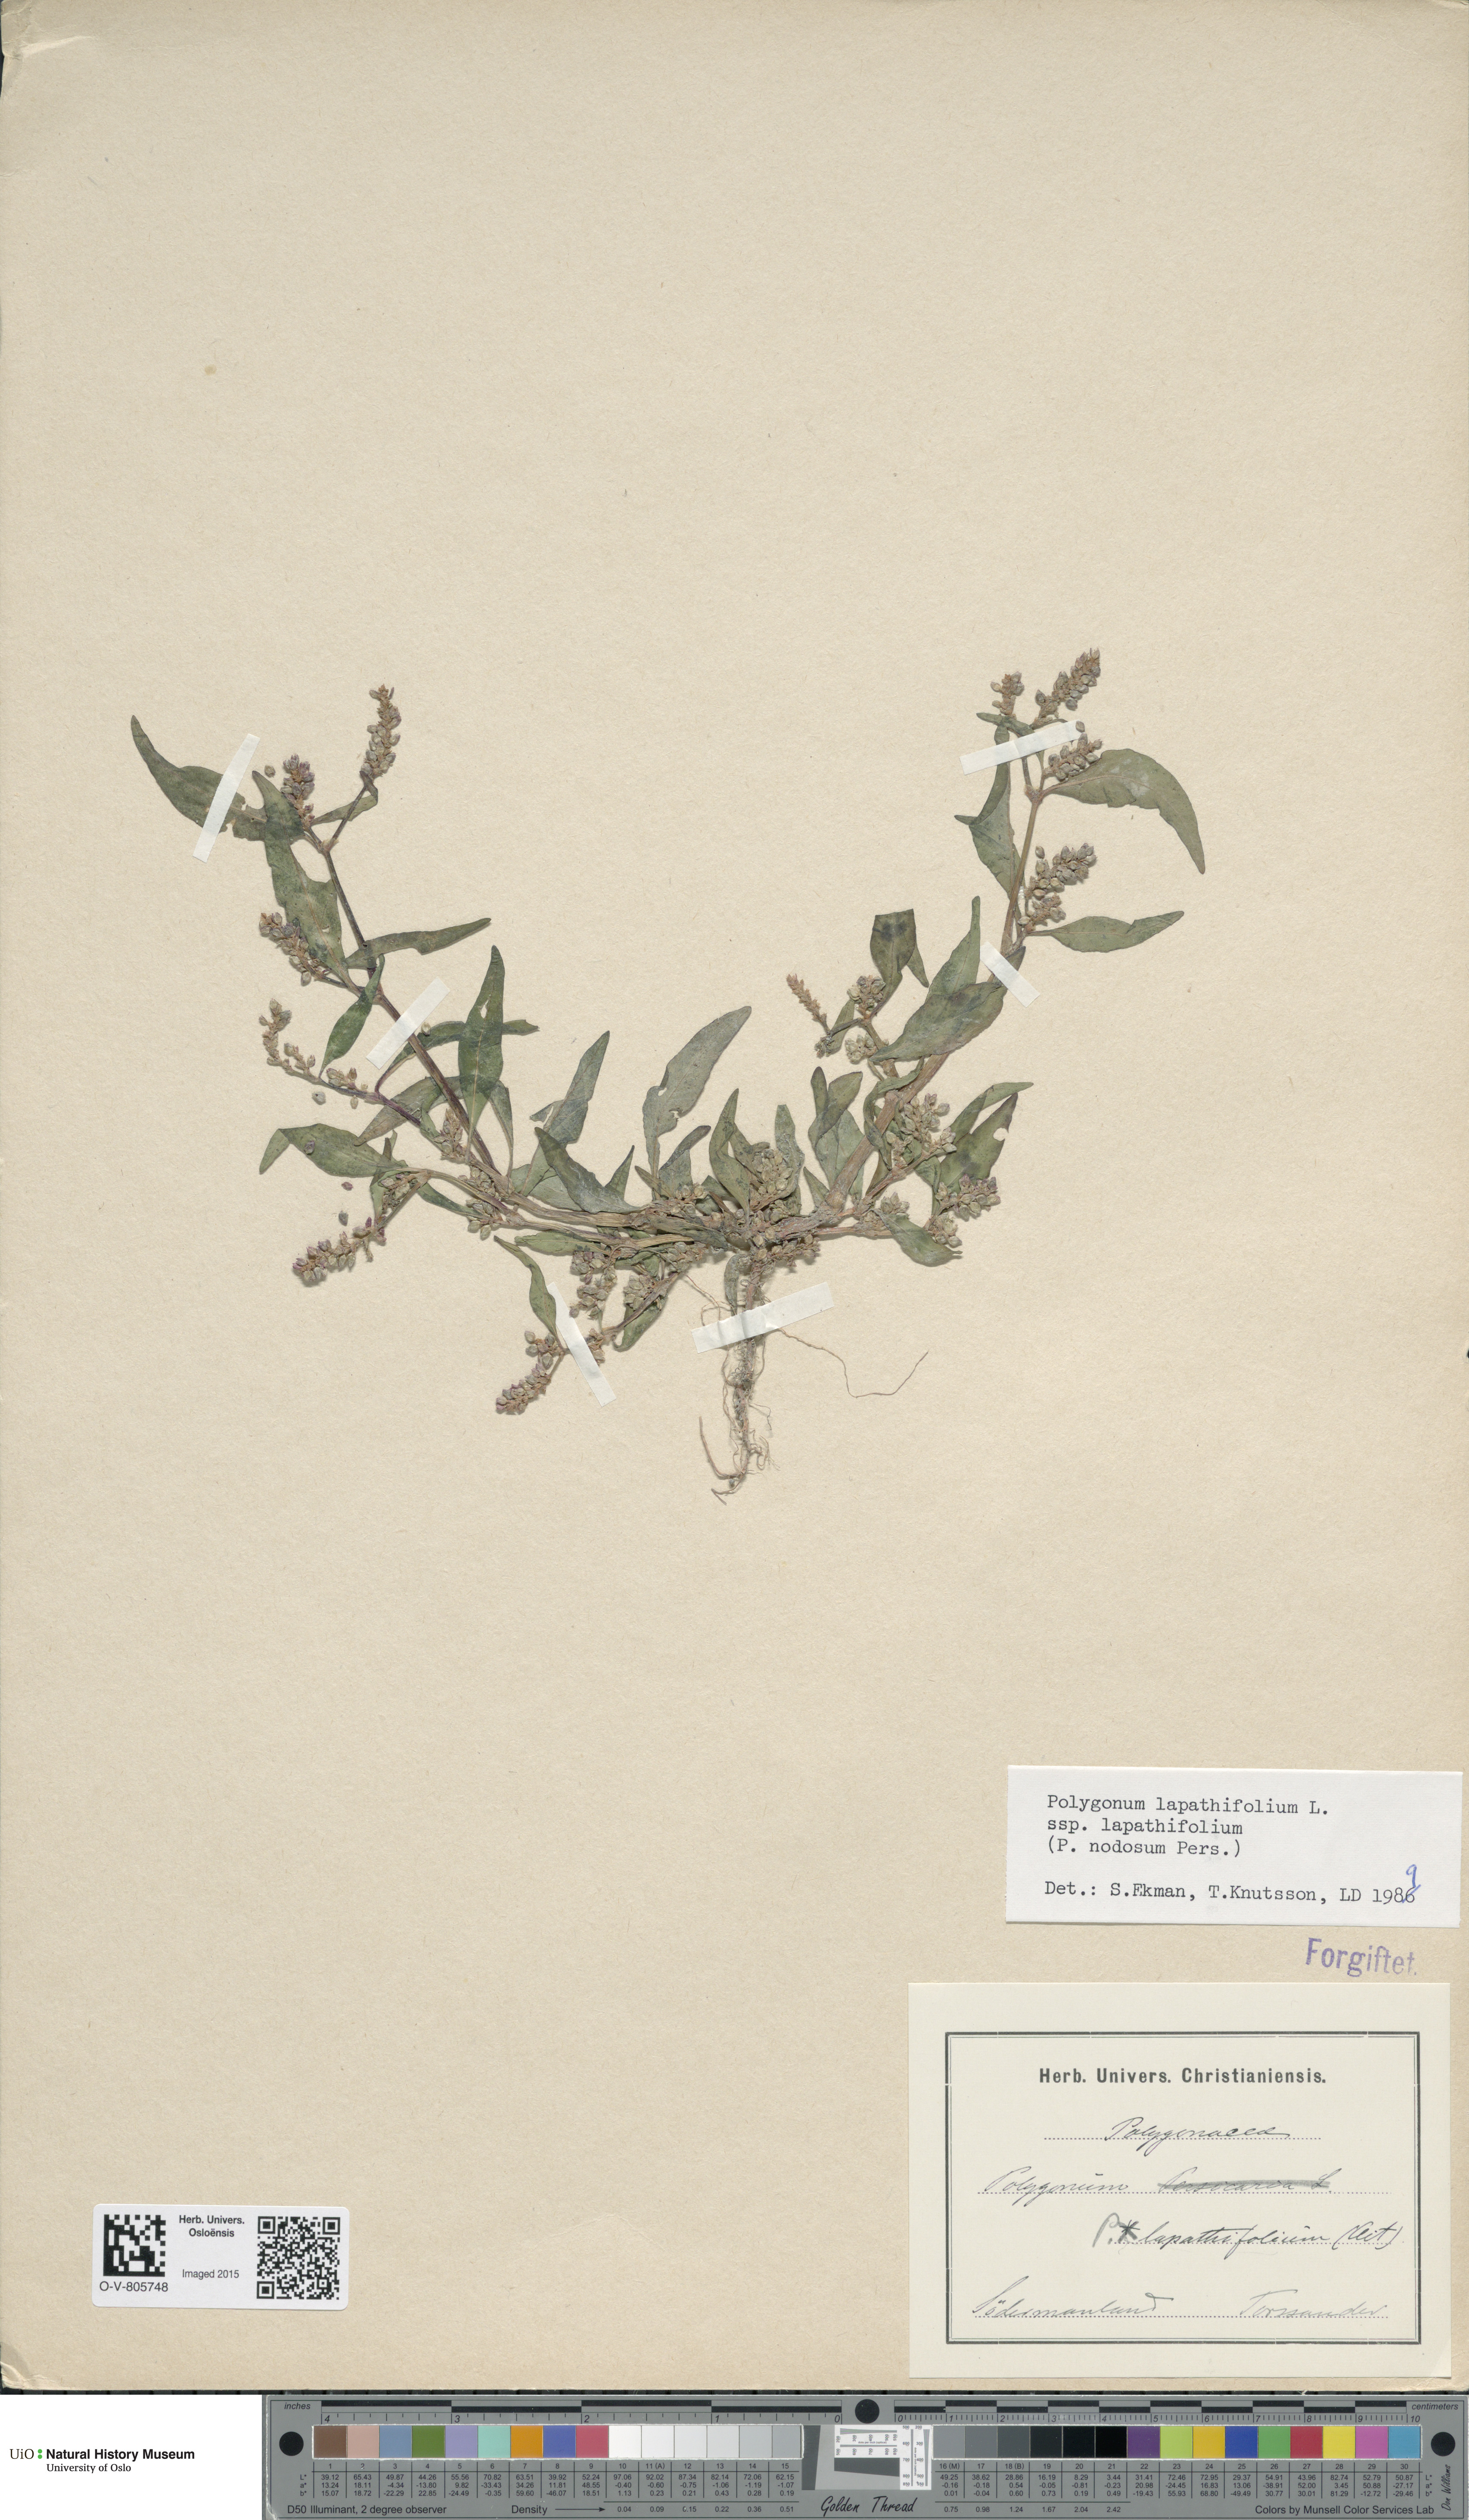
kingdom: Plantae
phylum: Tracheophyta
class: Magnoliopsida
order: Caryophyllales
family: Polygonaceae
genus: Persicaria
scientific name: Persicaria lapathifolia
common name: Curlytop knotweed
